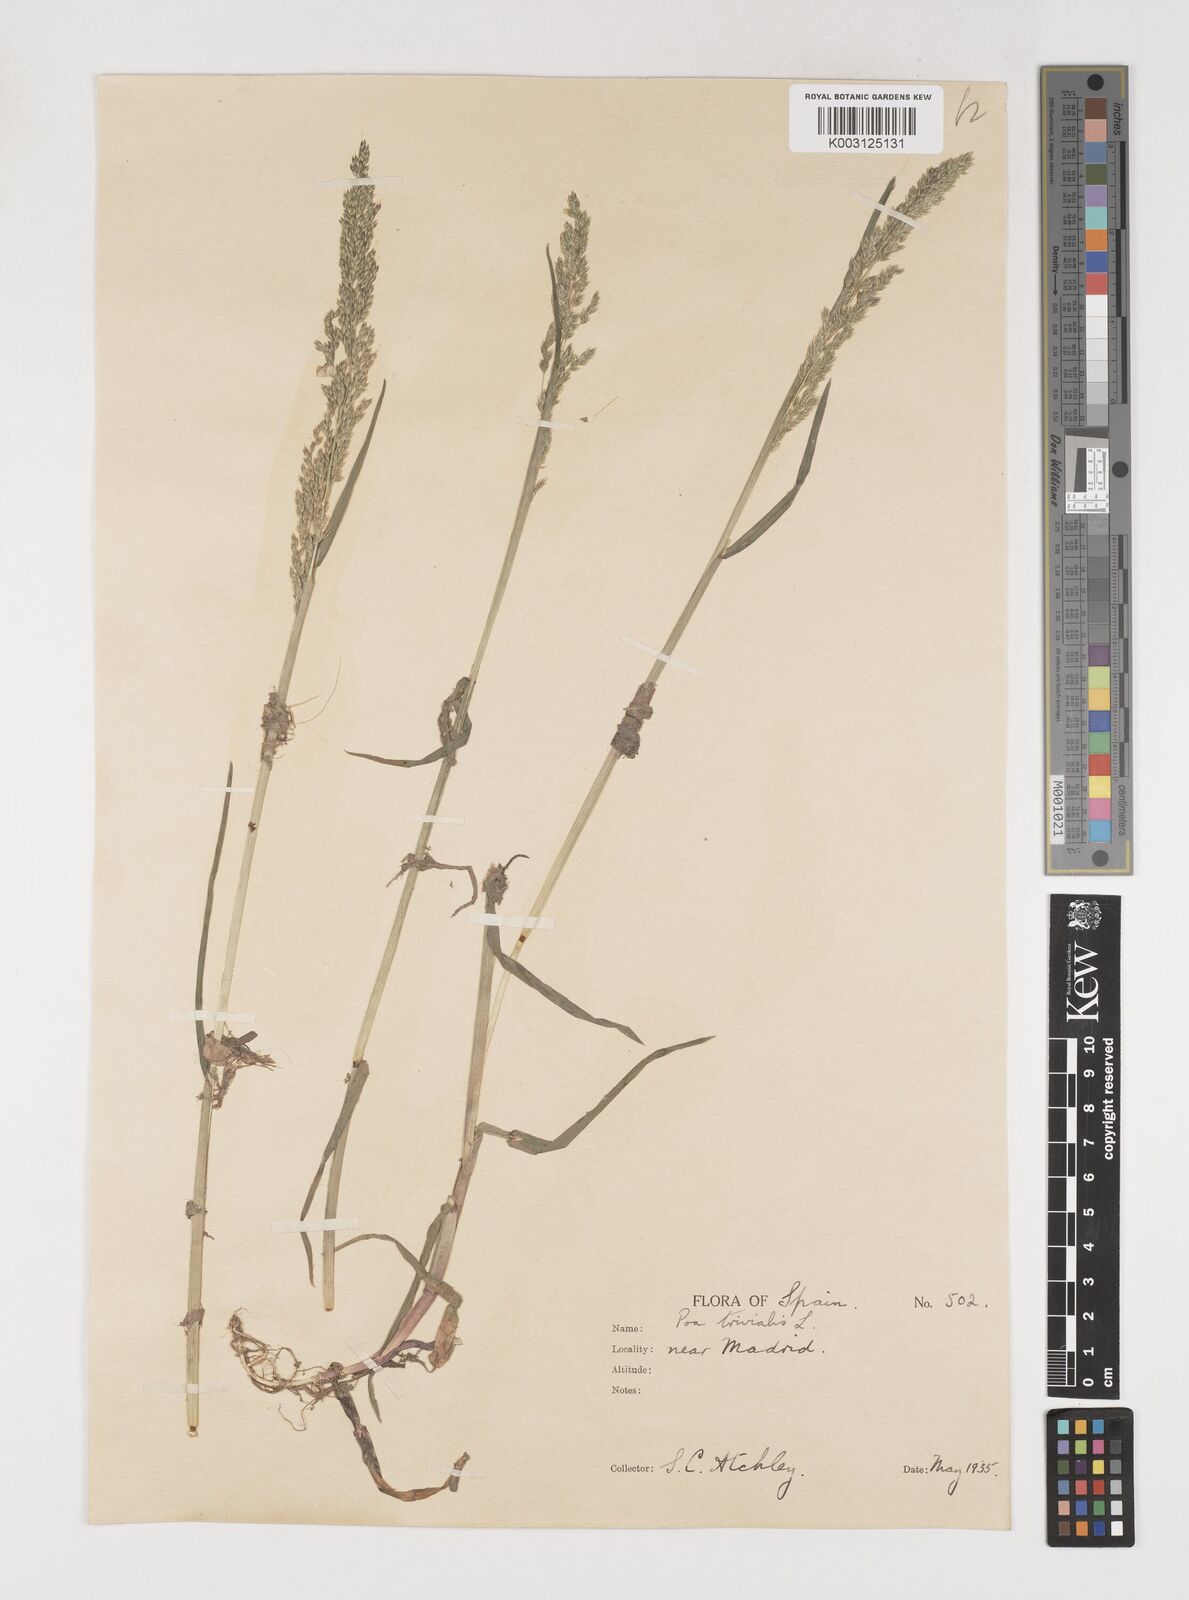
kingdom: Plantae
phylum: Tracheophyta
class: Liliopsida
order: Poales
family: Poaceae
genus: Poa
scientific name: Poa trivialis
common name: Rough bluegrass
